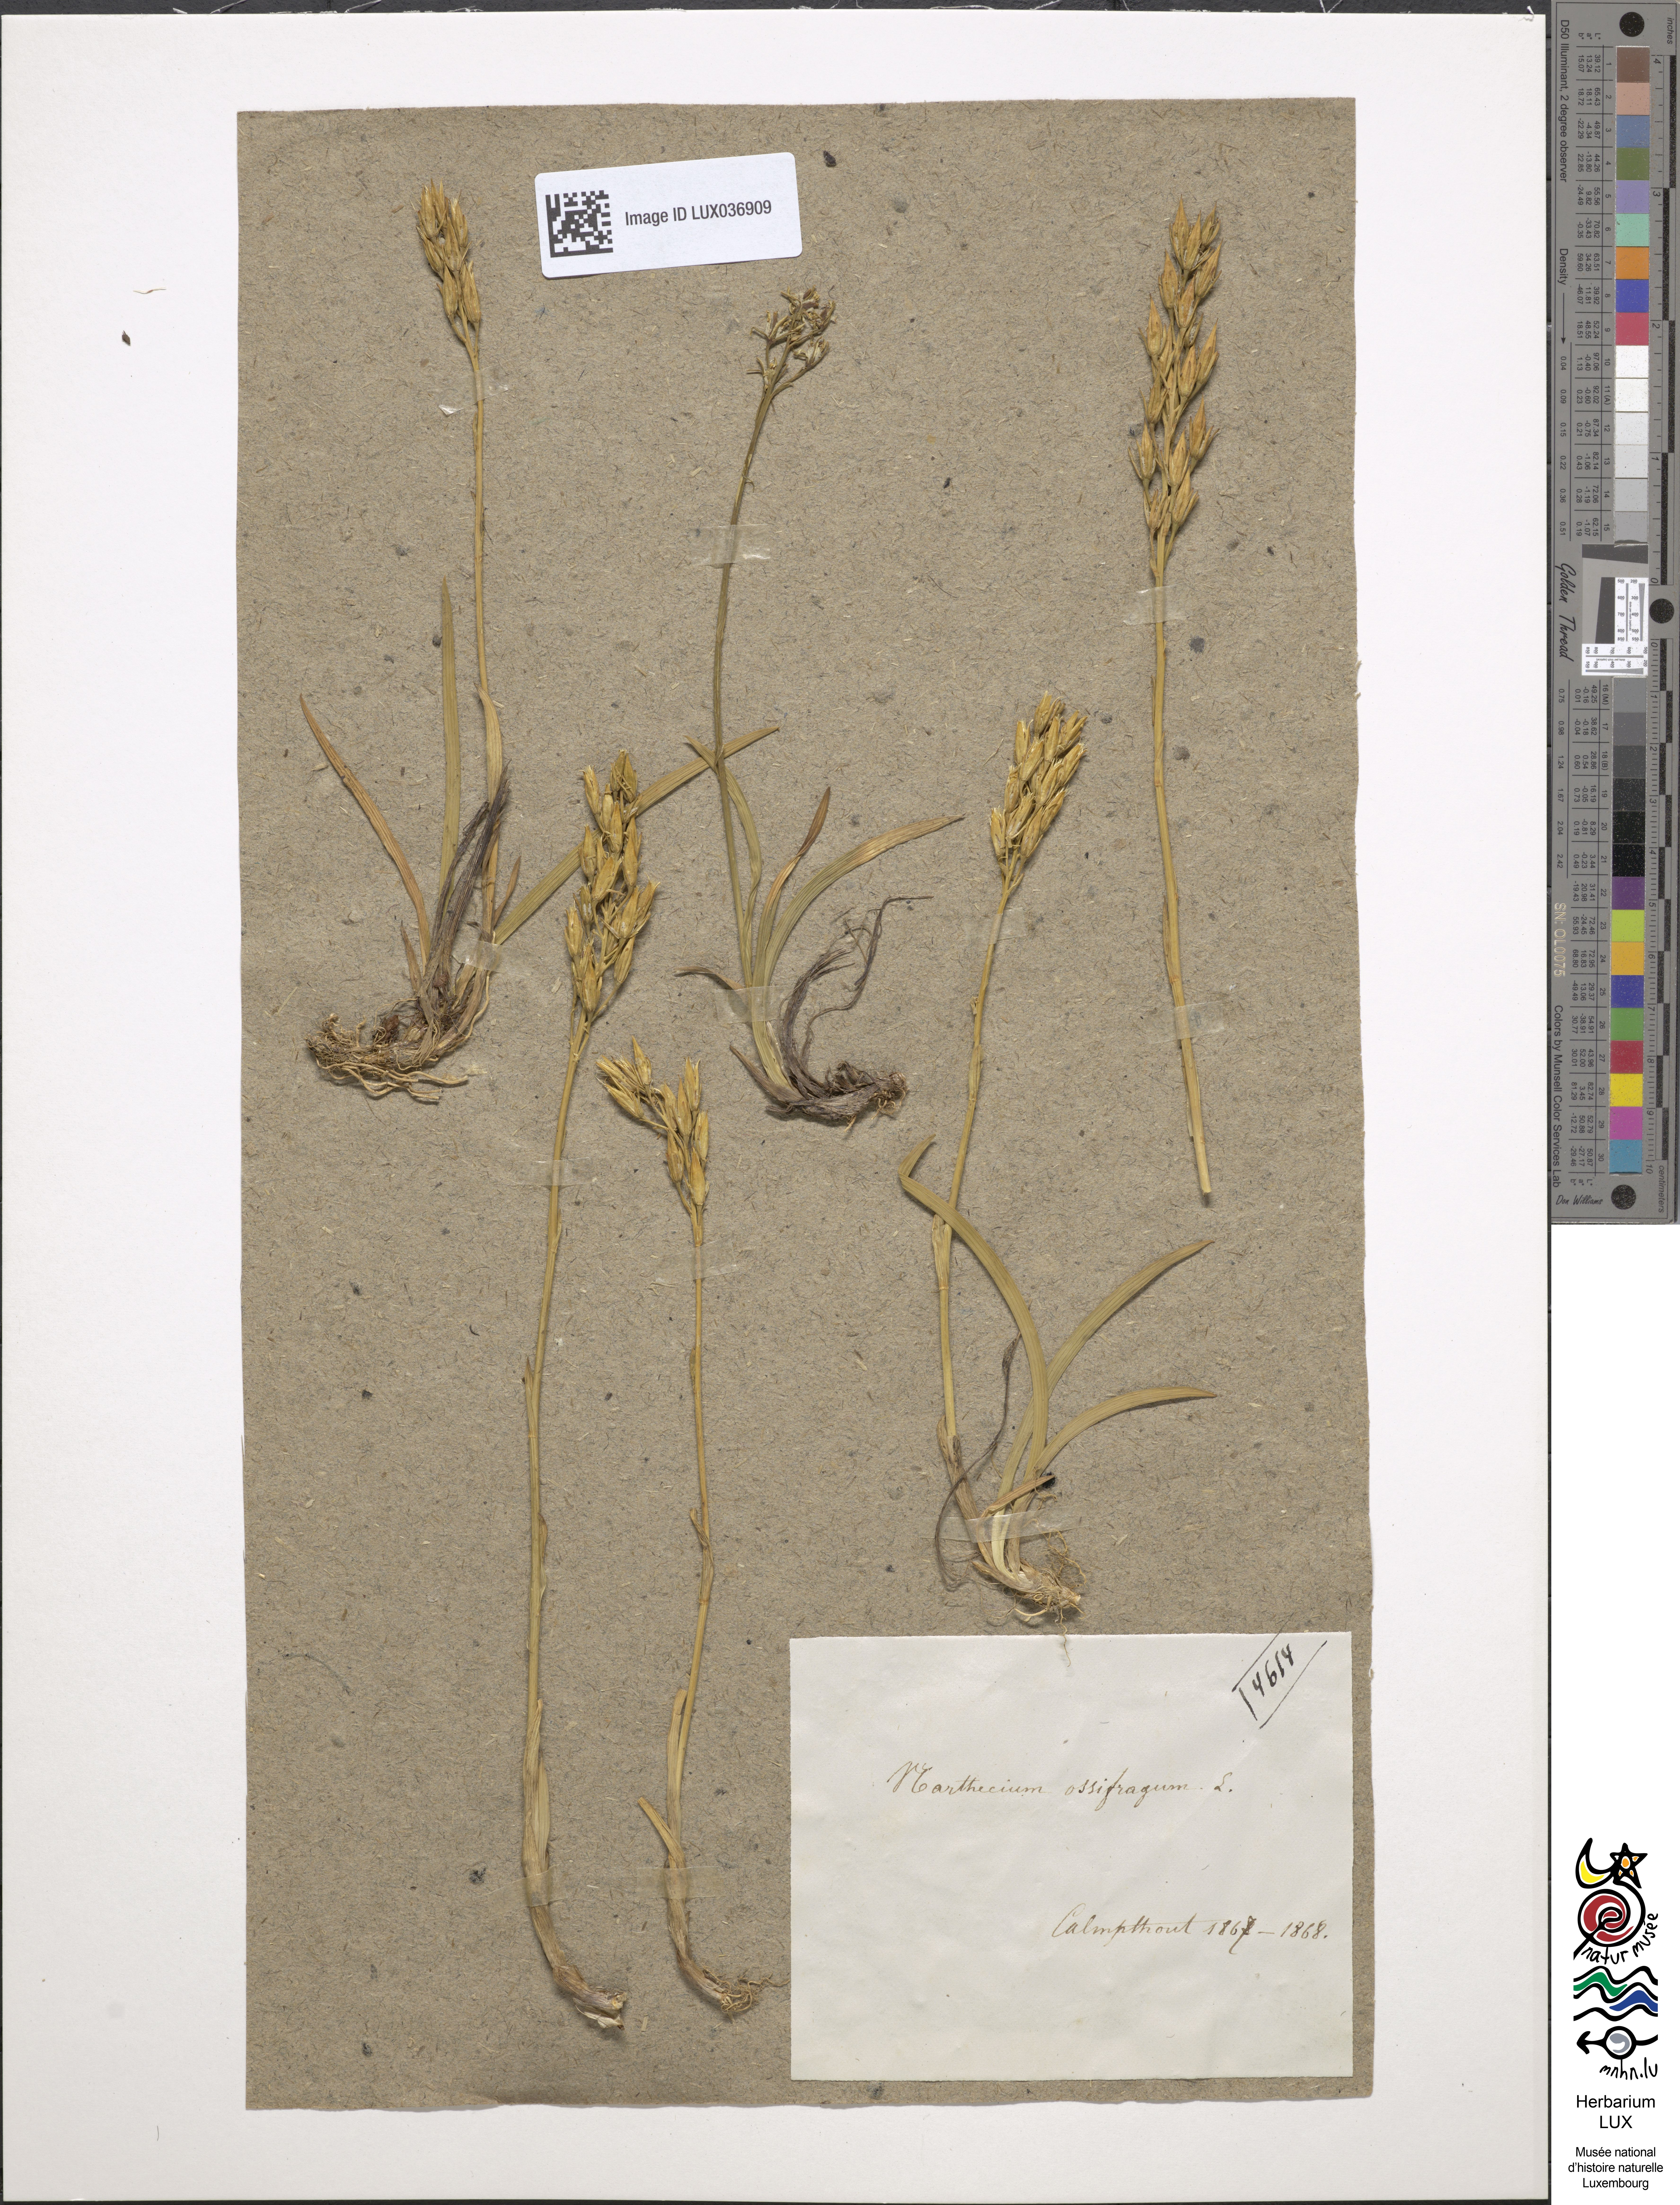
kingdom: Plantae
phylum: Tracheophyta
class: Liliopsida
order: Dioscoreales
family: Nartheciaceae
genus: Narthecium
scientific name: Narthecium ossifragum
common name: Bog asphodel
